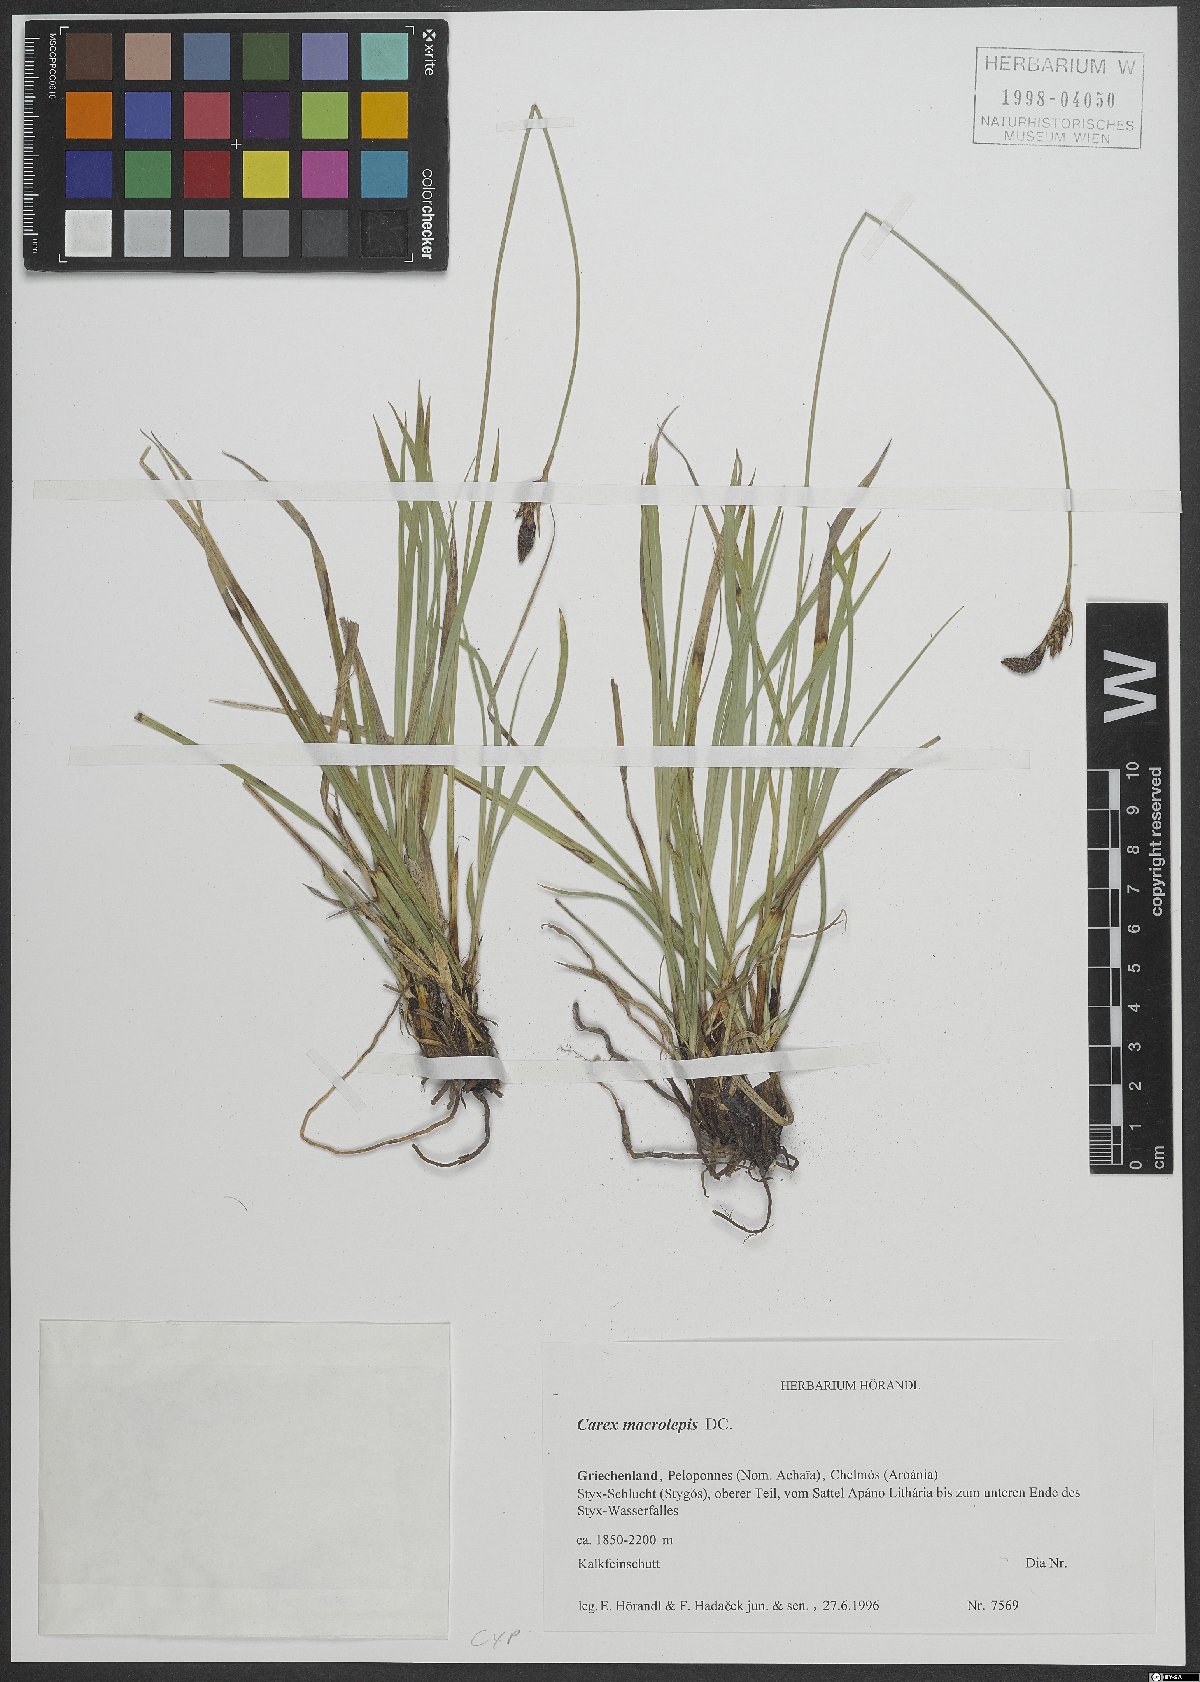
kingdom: Plantae
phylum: Tracheophyta
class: Liliopsida
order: Poales
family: Cyperaceae
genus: Carex
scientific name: Carex macrolepis
